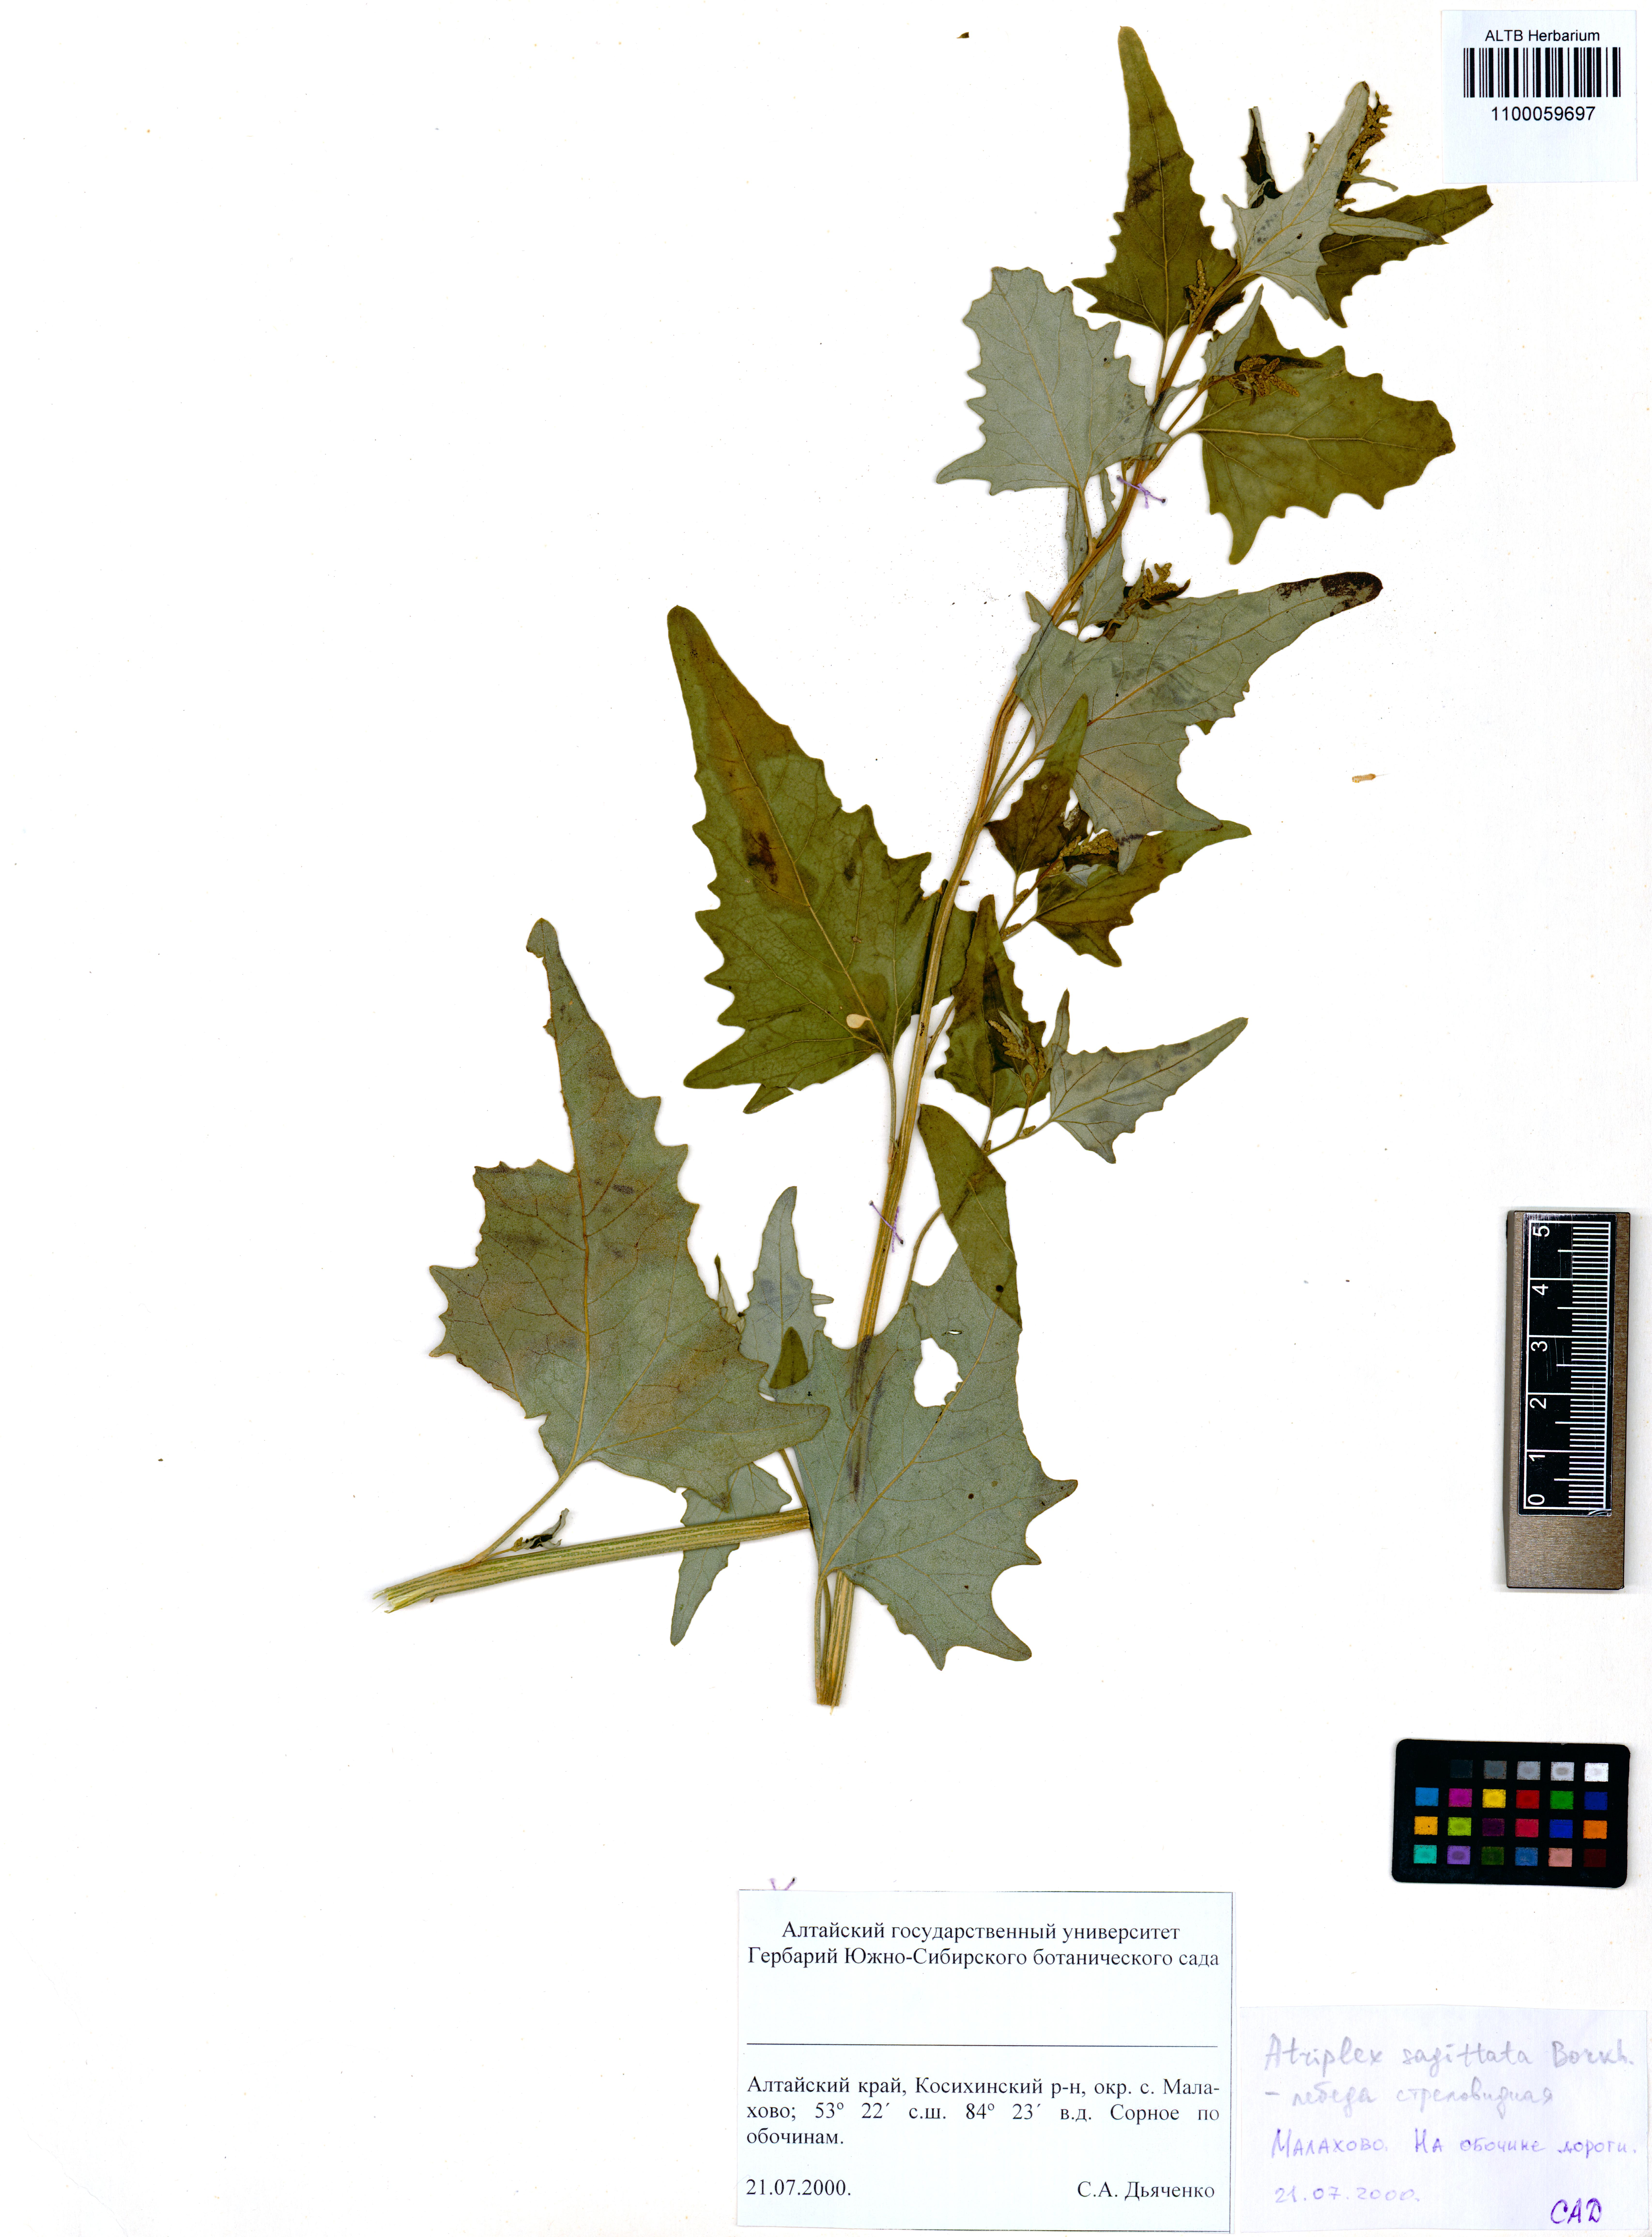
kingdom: Plantae
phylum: Tracheophyta
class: Magnoliopsida
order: Caryophyllales
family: Amaranthaceae
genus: Atriplex
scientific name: Atriplex sagittata
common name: Purple orache
